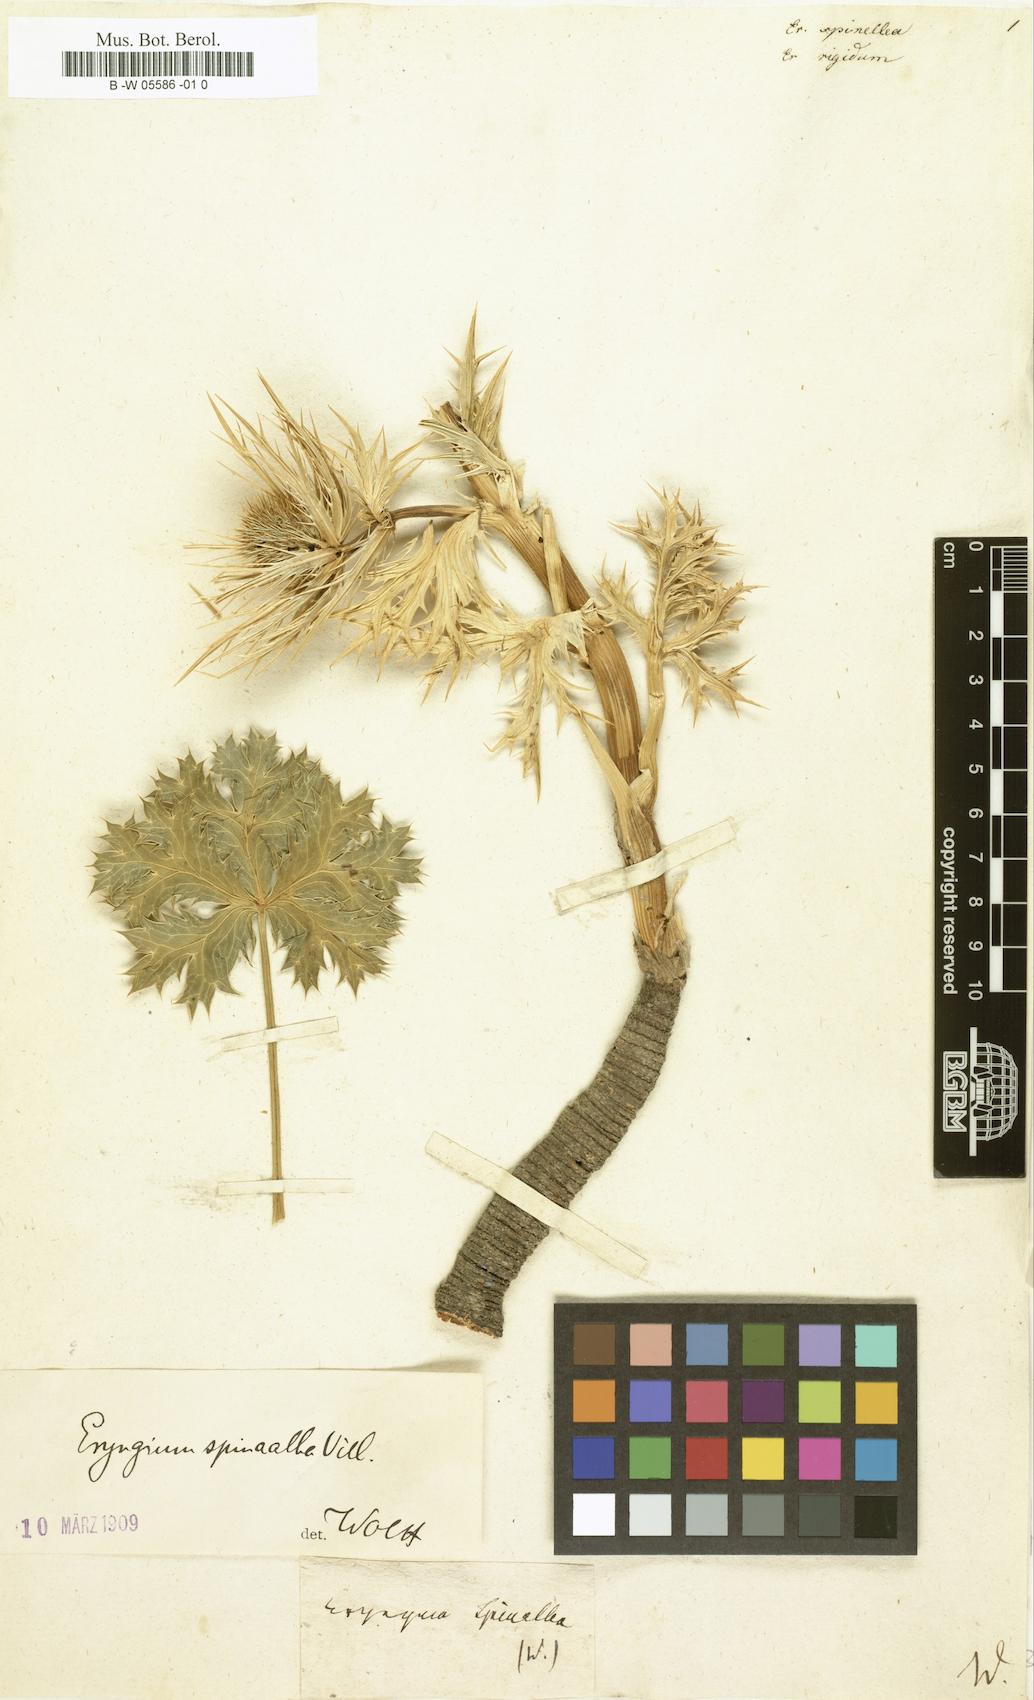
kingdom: Plantae
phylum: Tracheophyta
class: Magnoliopsida
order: Apiales
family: Apiaceae
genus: Eryngium
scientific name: Eryngium spinalba
